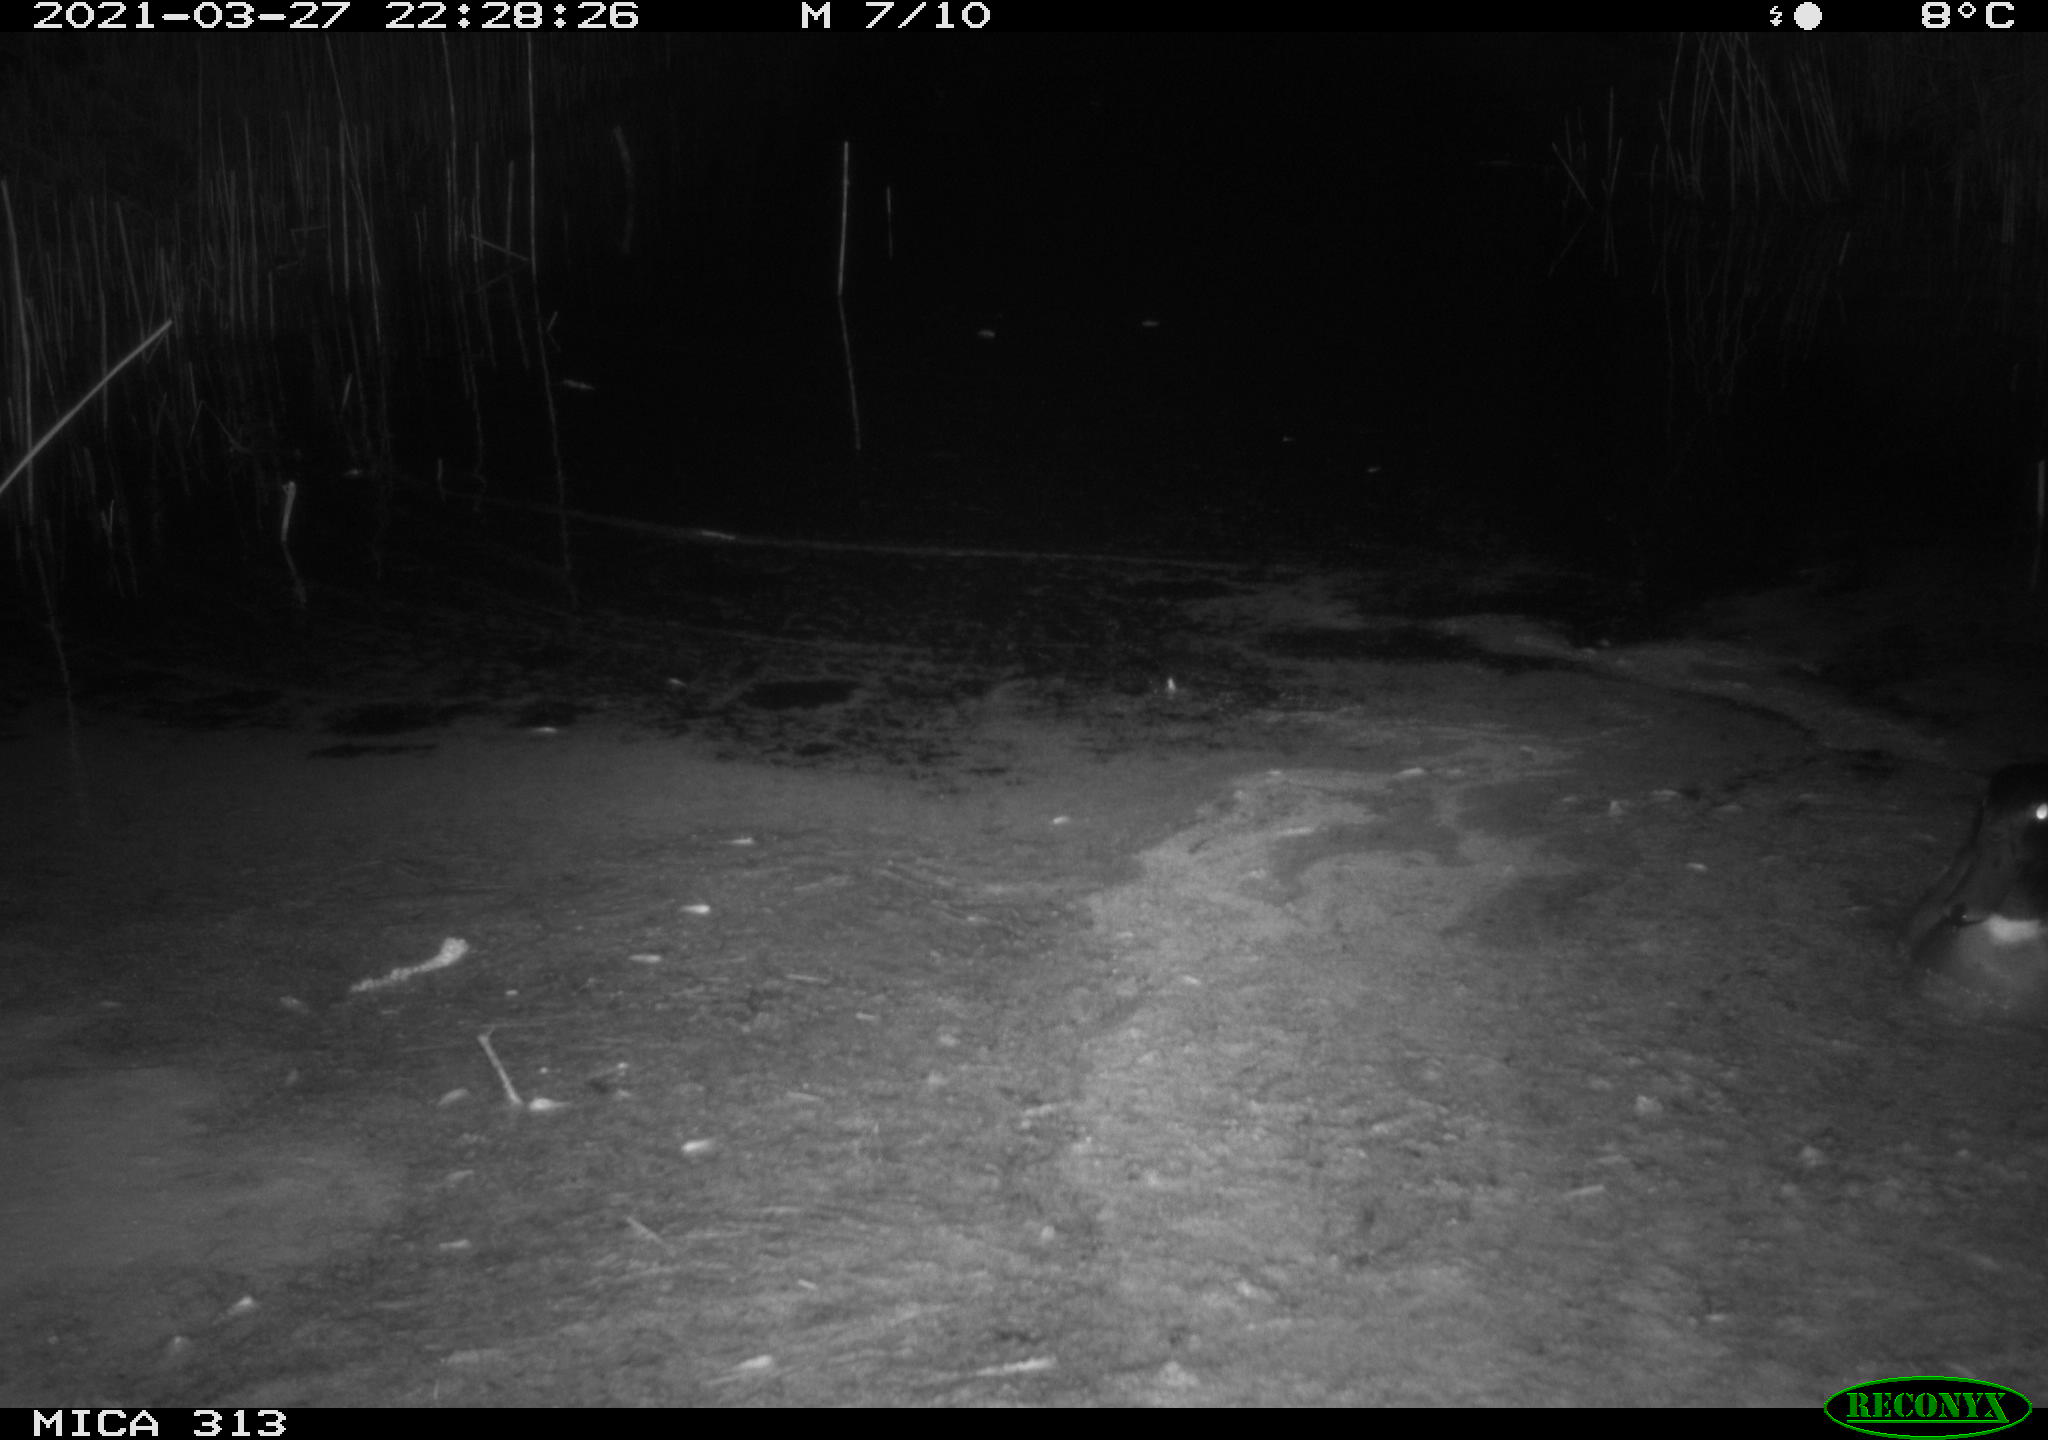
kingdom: Animalia
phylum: Chordata
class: Aves
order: Anseriformes
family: Anatidae
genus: Anas
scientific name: Anas platyrhynchos
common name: Mallard
